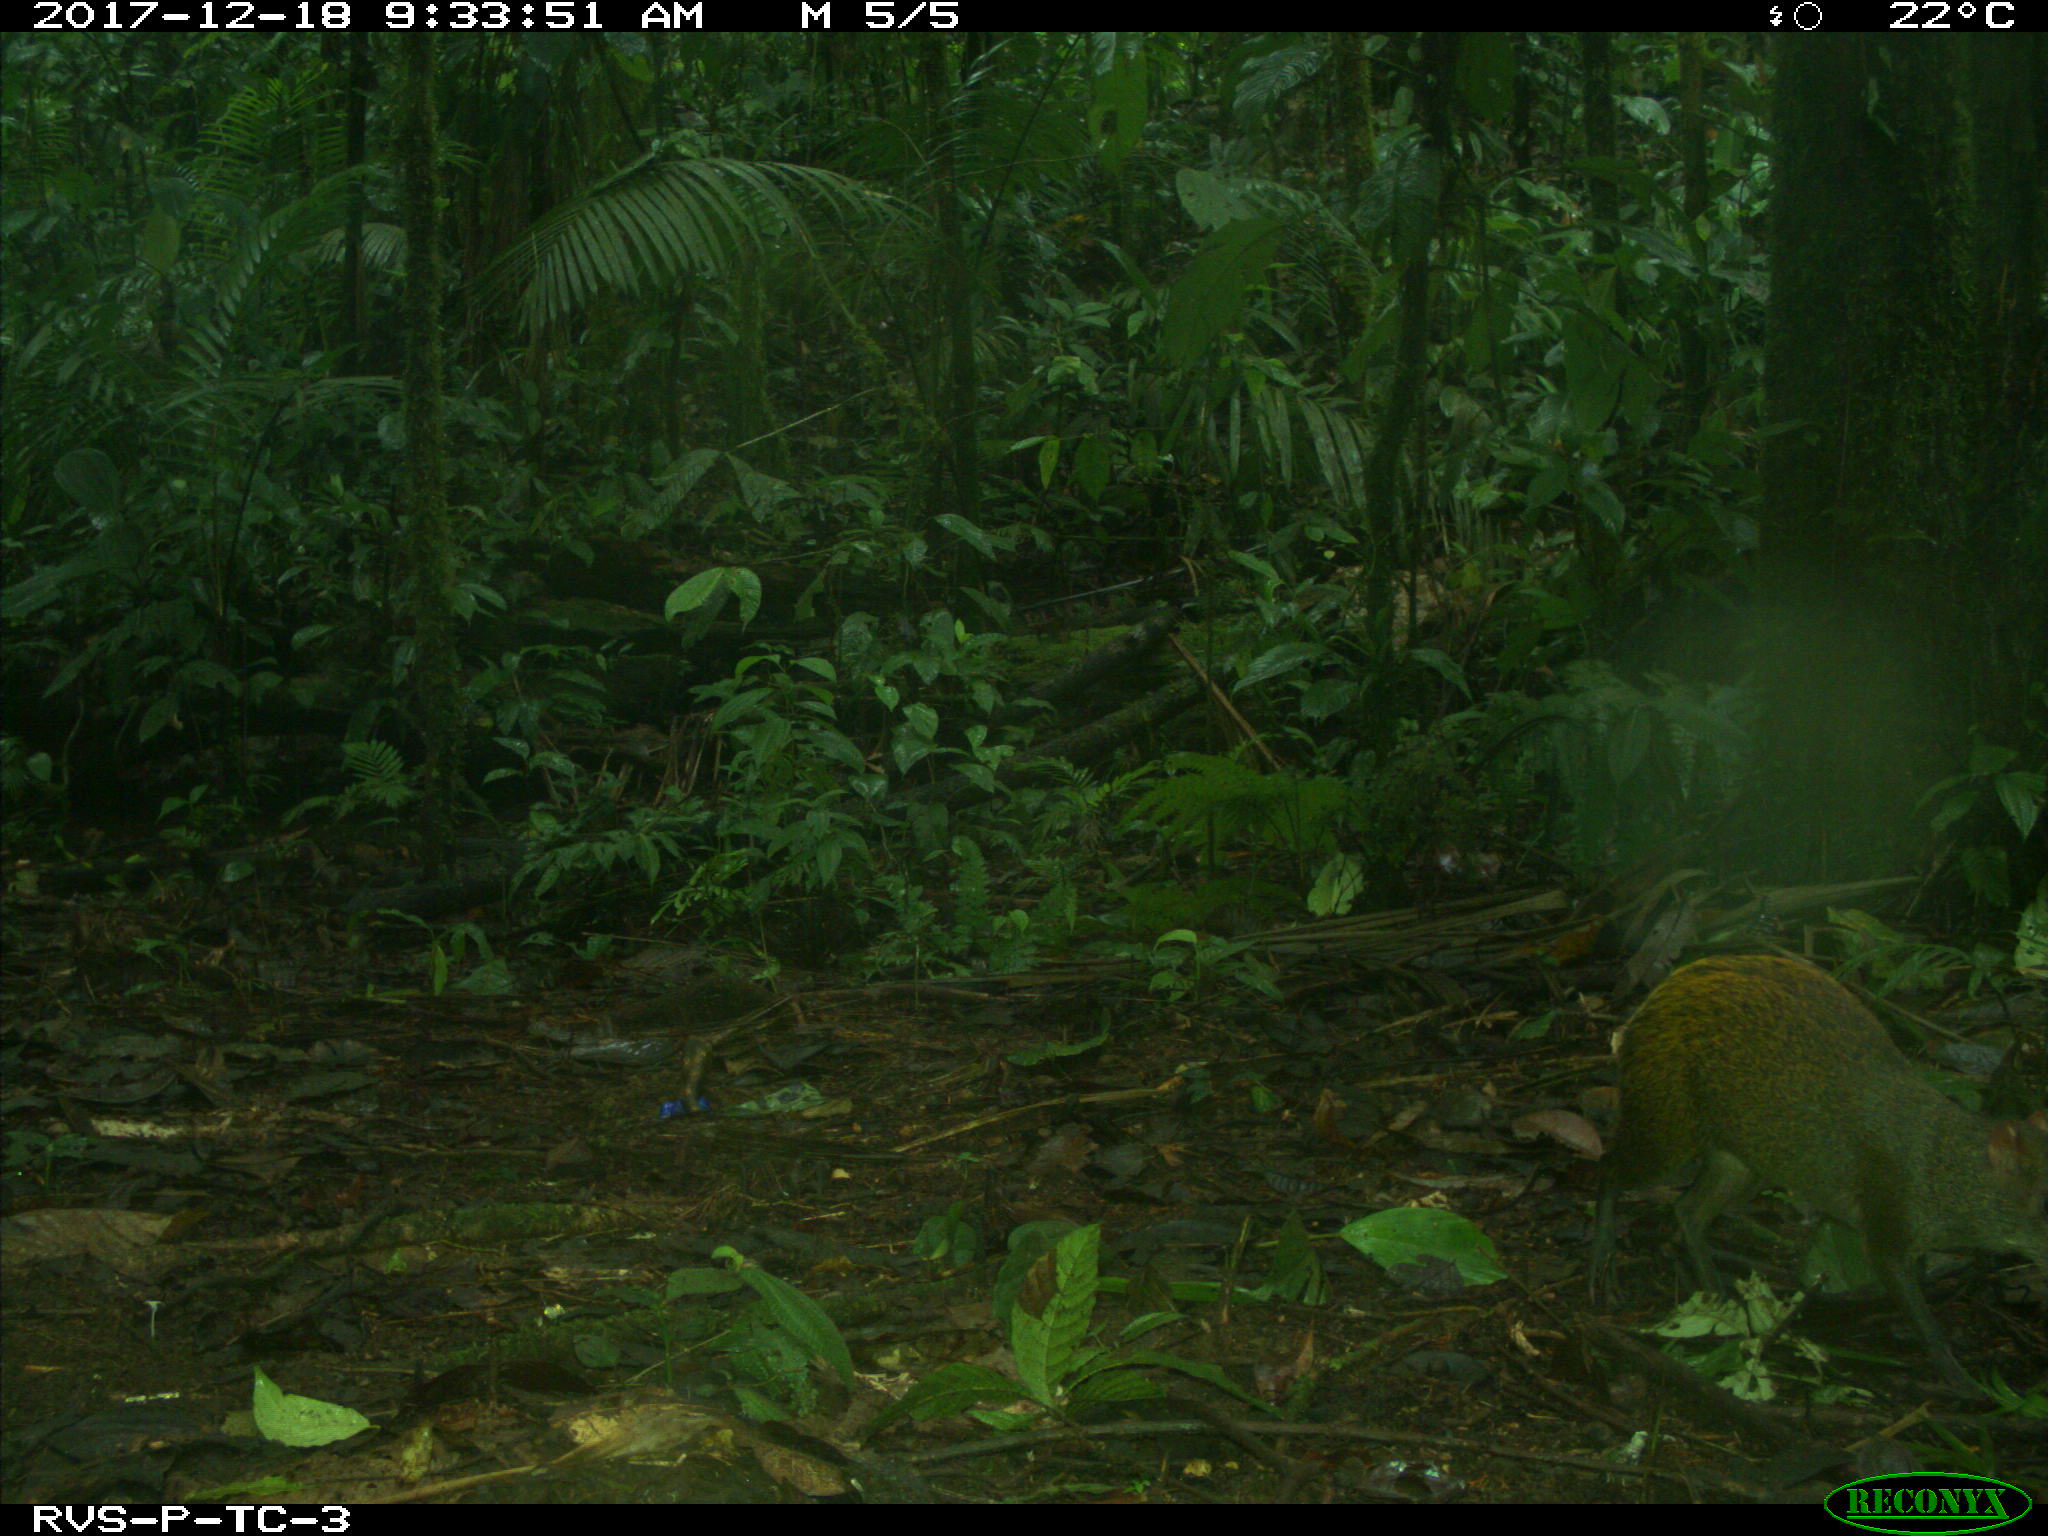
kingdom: Animalia
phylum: Chordata
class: Mammalia
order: Rodentia
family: Dasyproctidae
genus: Dasyprocta
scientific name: Dasyprocta punctata
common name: Central american agouti
